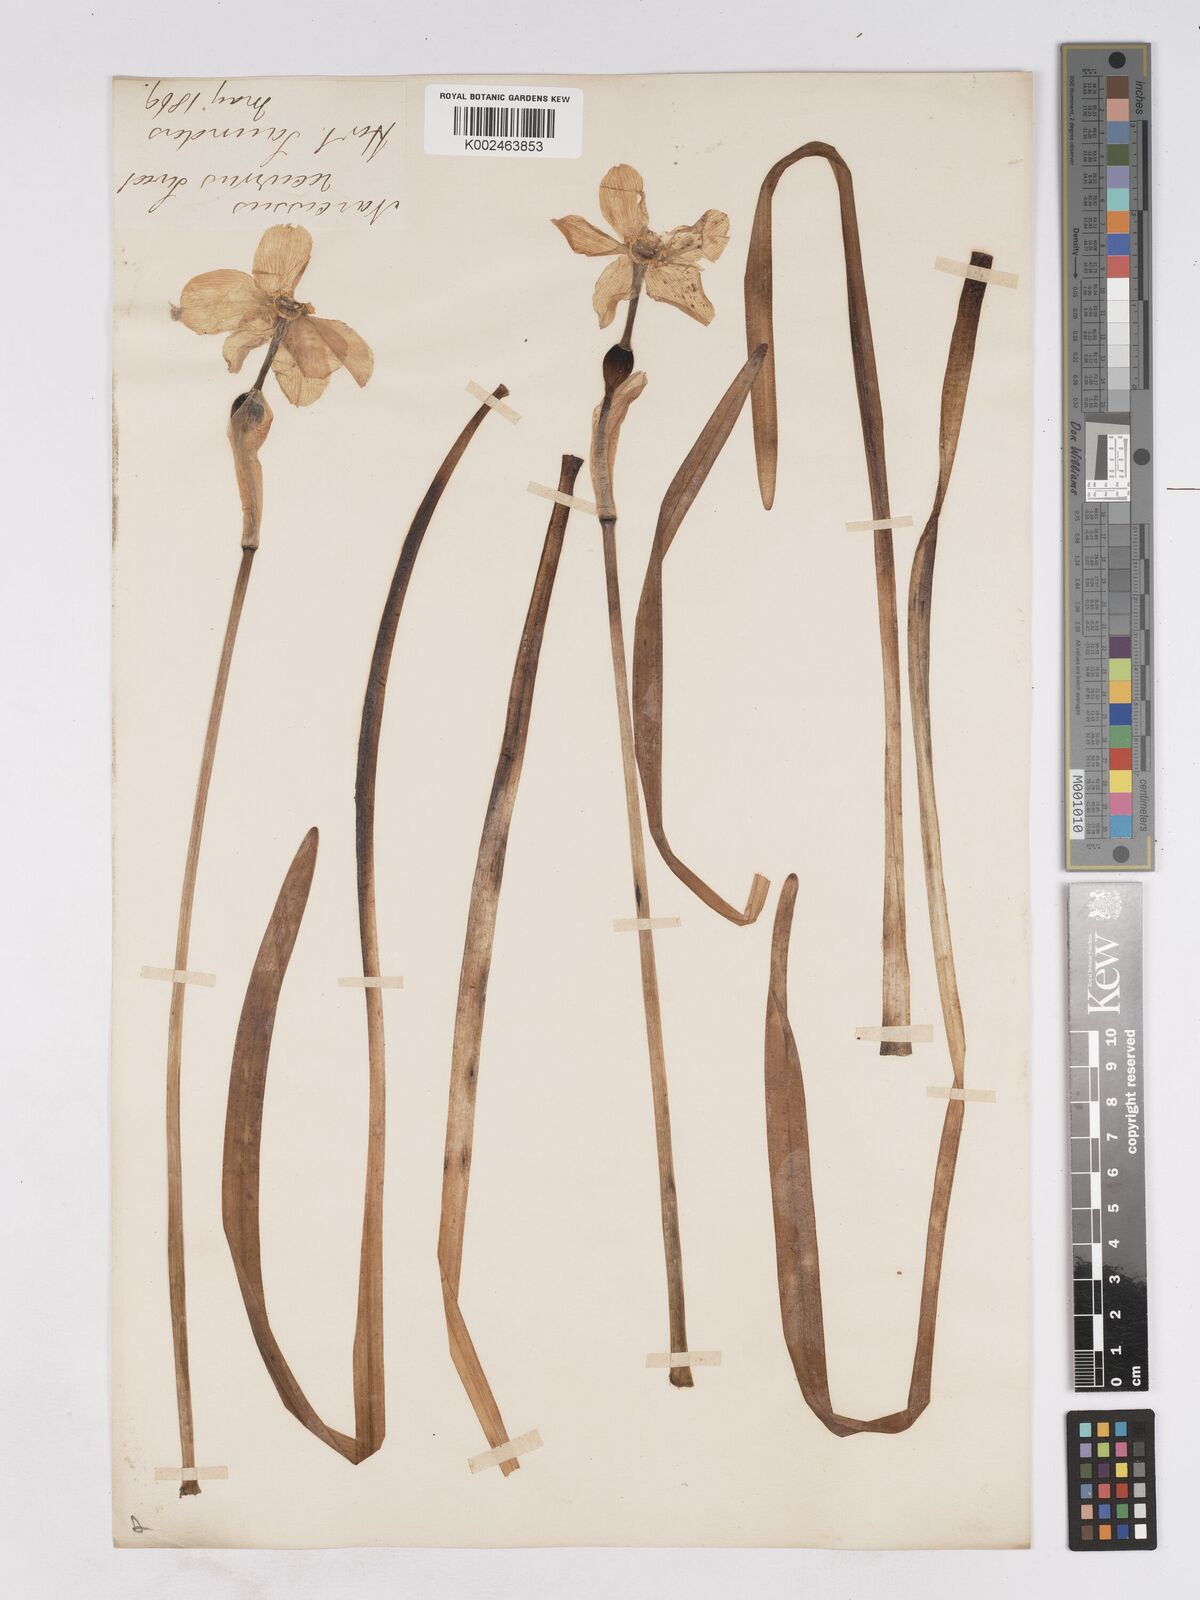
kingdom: Plantae
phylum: Tracheophyta
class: Liliopsida
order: Asparagales
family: Amaryllidaceae
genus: Narcissus
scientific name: Narcissus poeticus
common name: Pheasant's-eye daffodil
